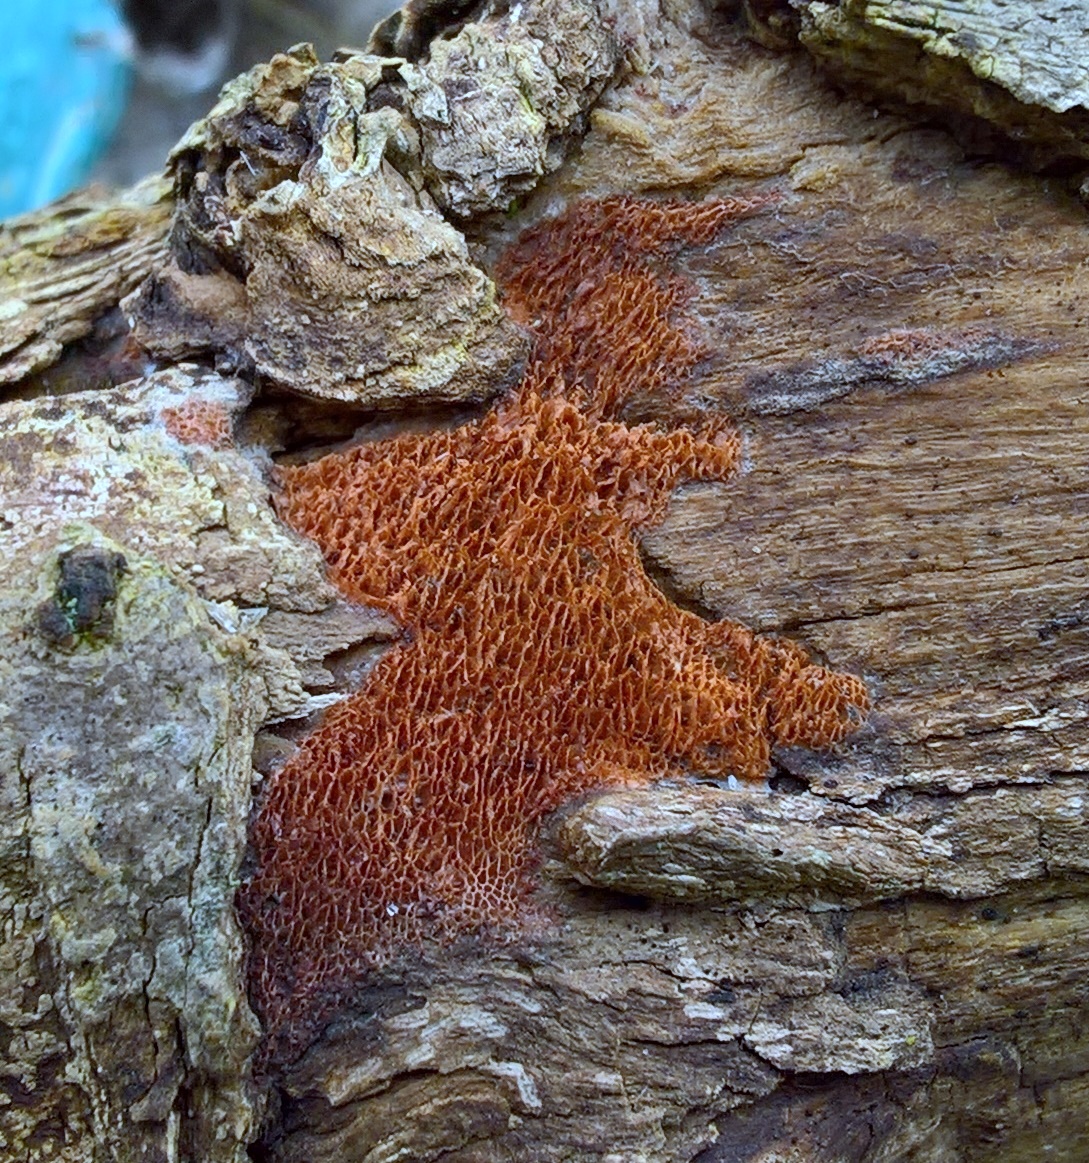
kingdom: Fungi
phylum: Basidiomycota
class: Agaricomycetes
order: Polyporales
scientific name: Polyporales
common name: poresvampordenen
